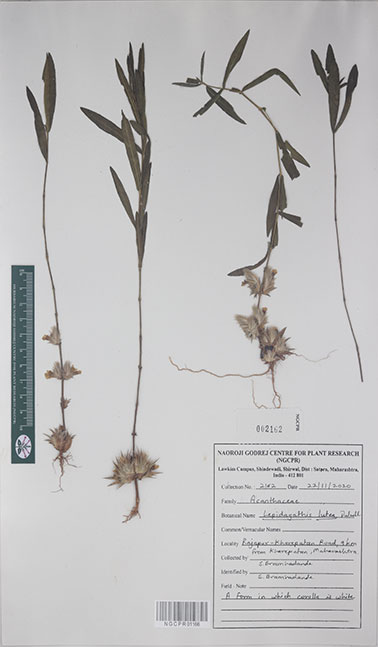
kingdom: Plantae
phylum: Tracheophyta
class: Magnoliopsida
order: Lamiales
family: Acanthaceae
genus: Lepidagathis
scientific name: Lepidagathis lutea
